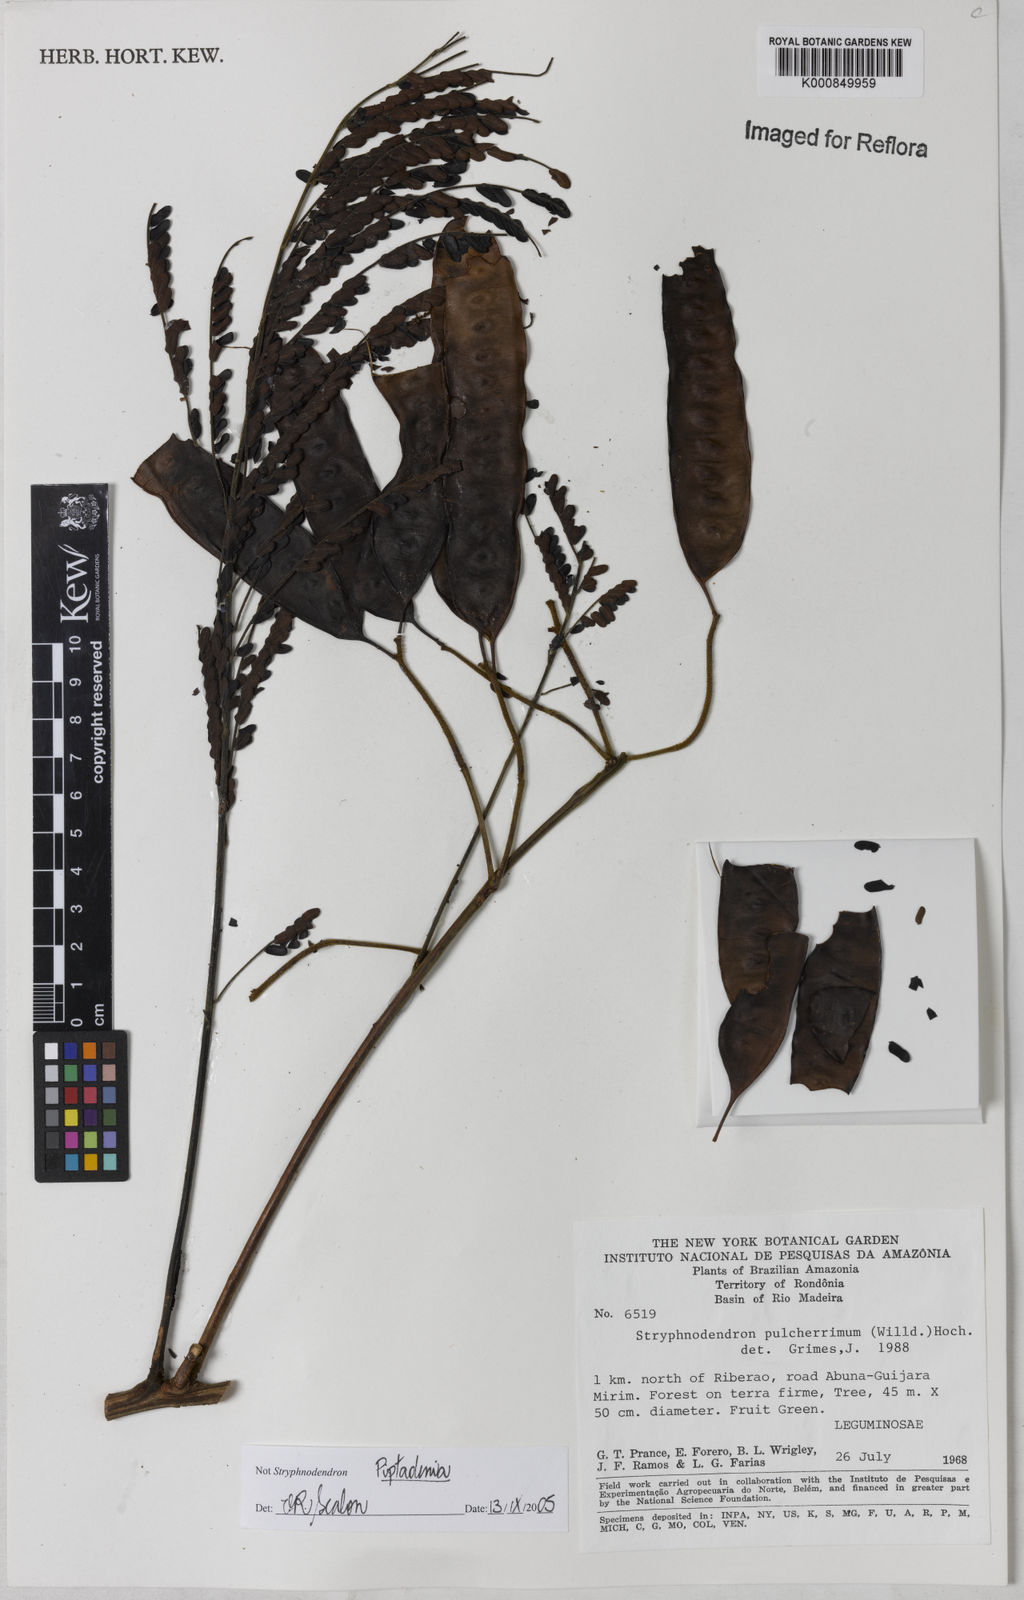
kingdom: Plantae
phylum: Tracheophyta
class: Magnoliopsida
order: Fabales
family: Fabaceae
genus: Piptadenia
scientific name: Piptadenia
